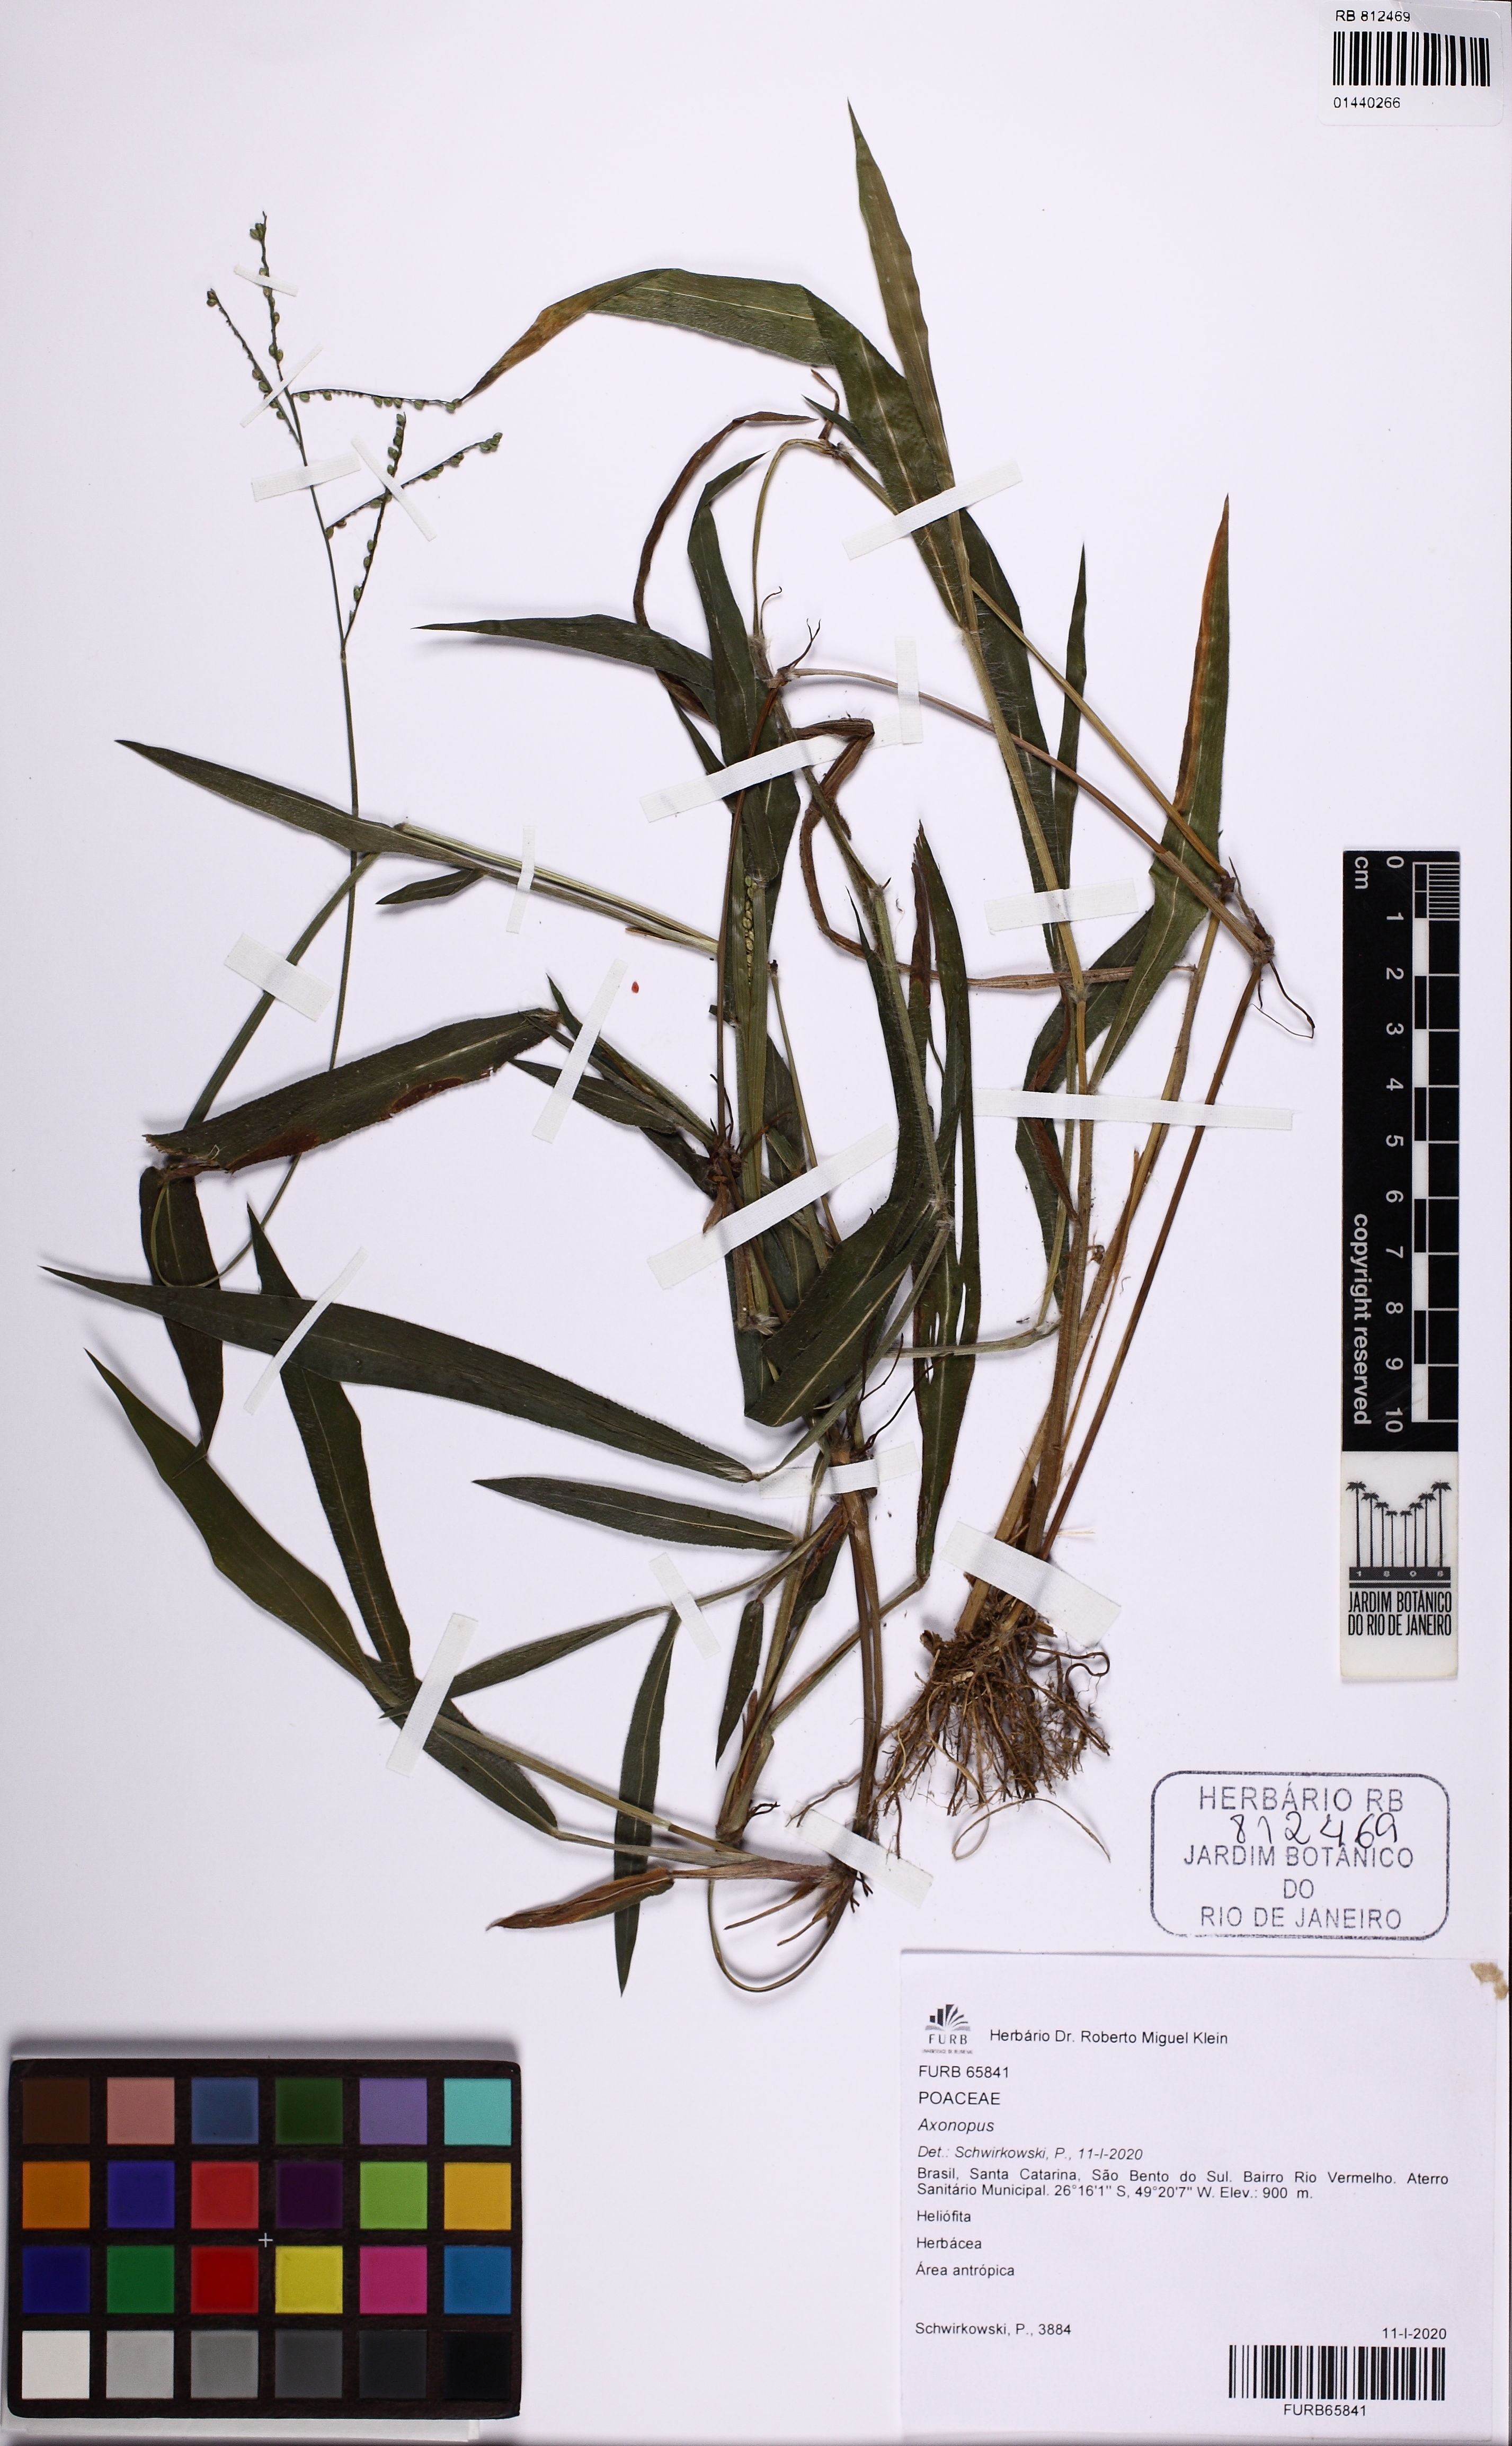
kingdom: Plantae
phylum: Tracheophyta
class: Liliopsida
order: Poales
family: Poaceae
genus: Axonopus
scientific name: Axonopus
